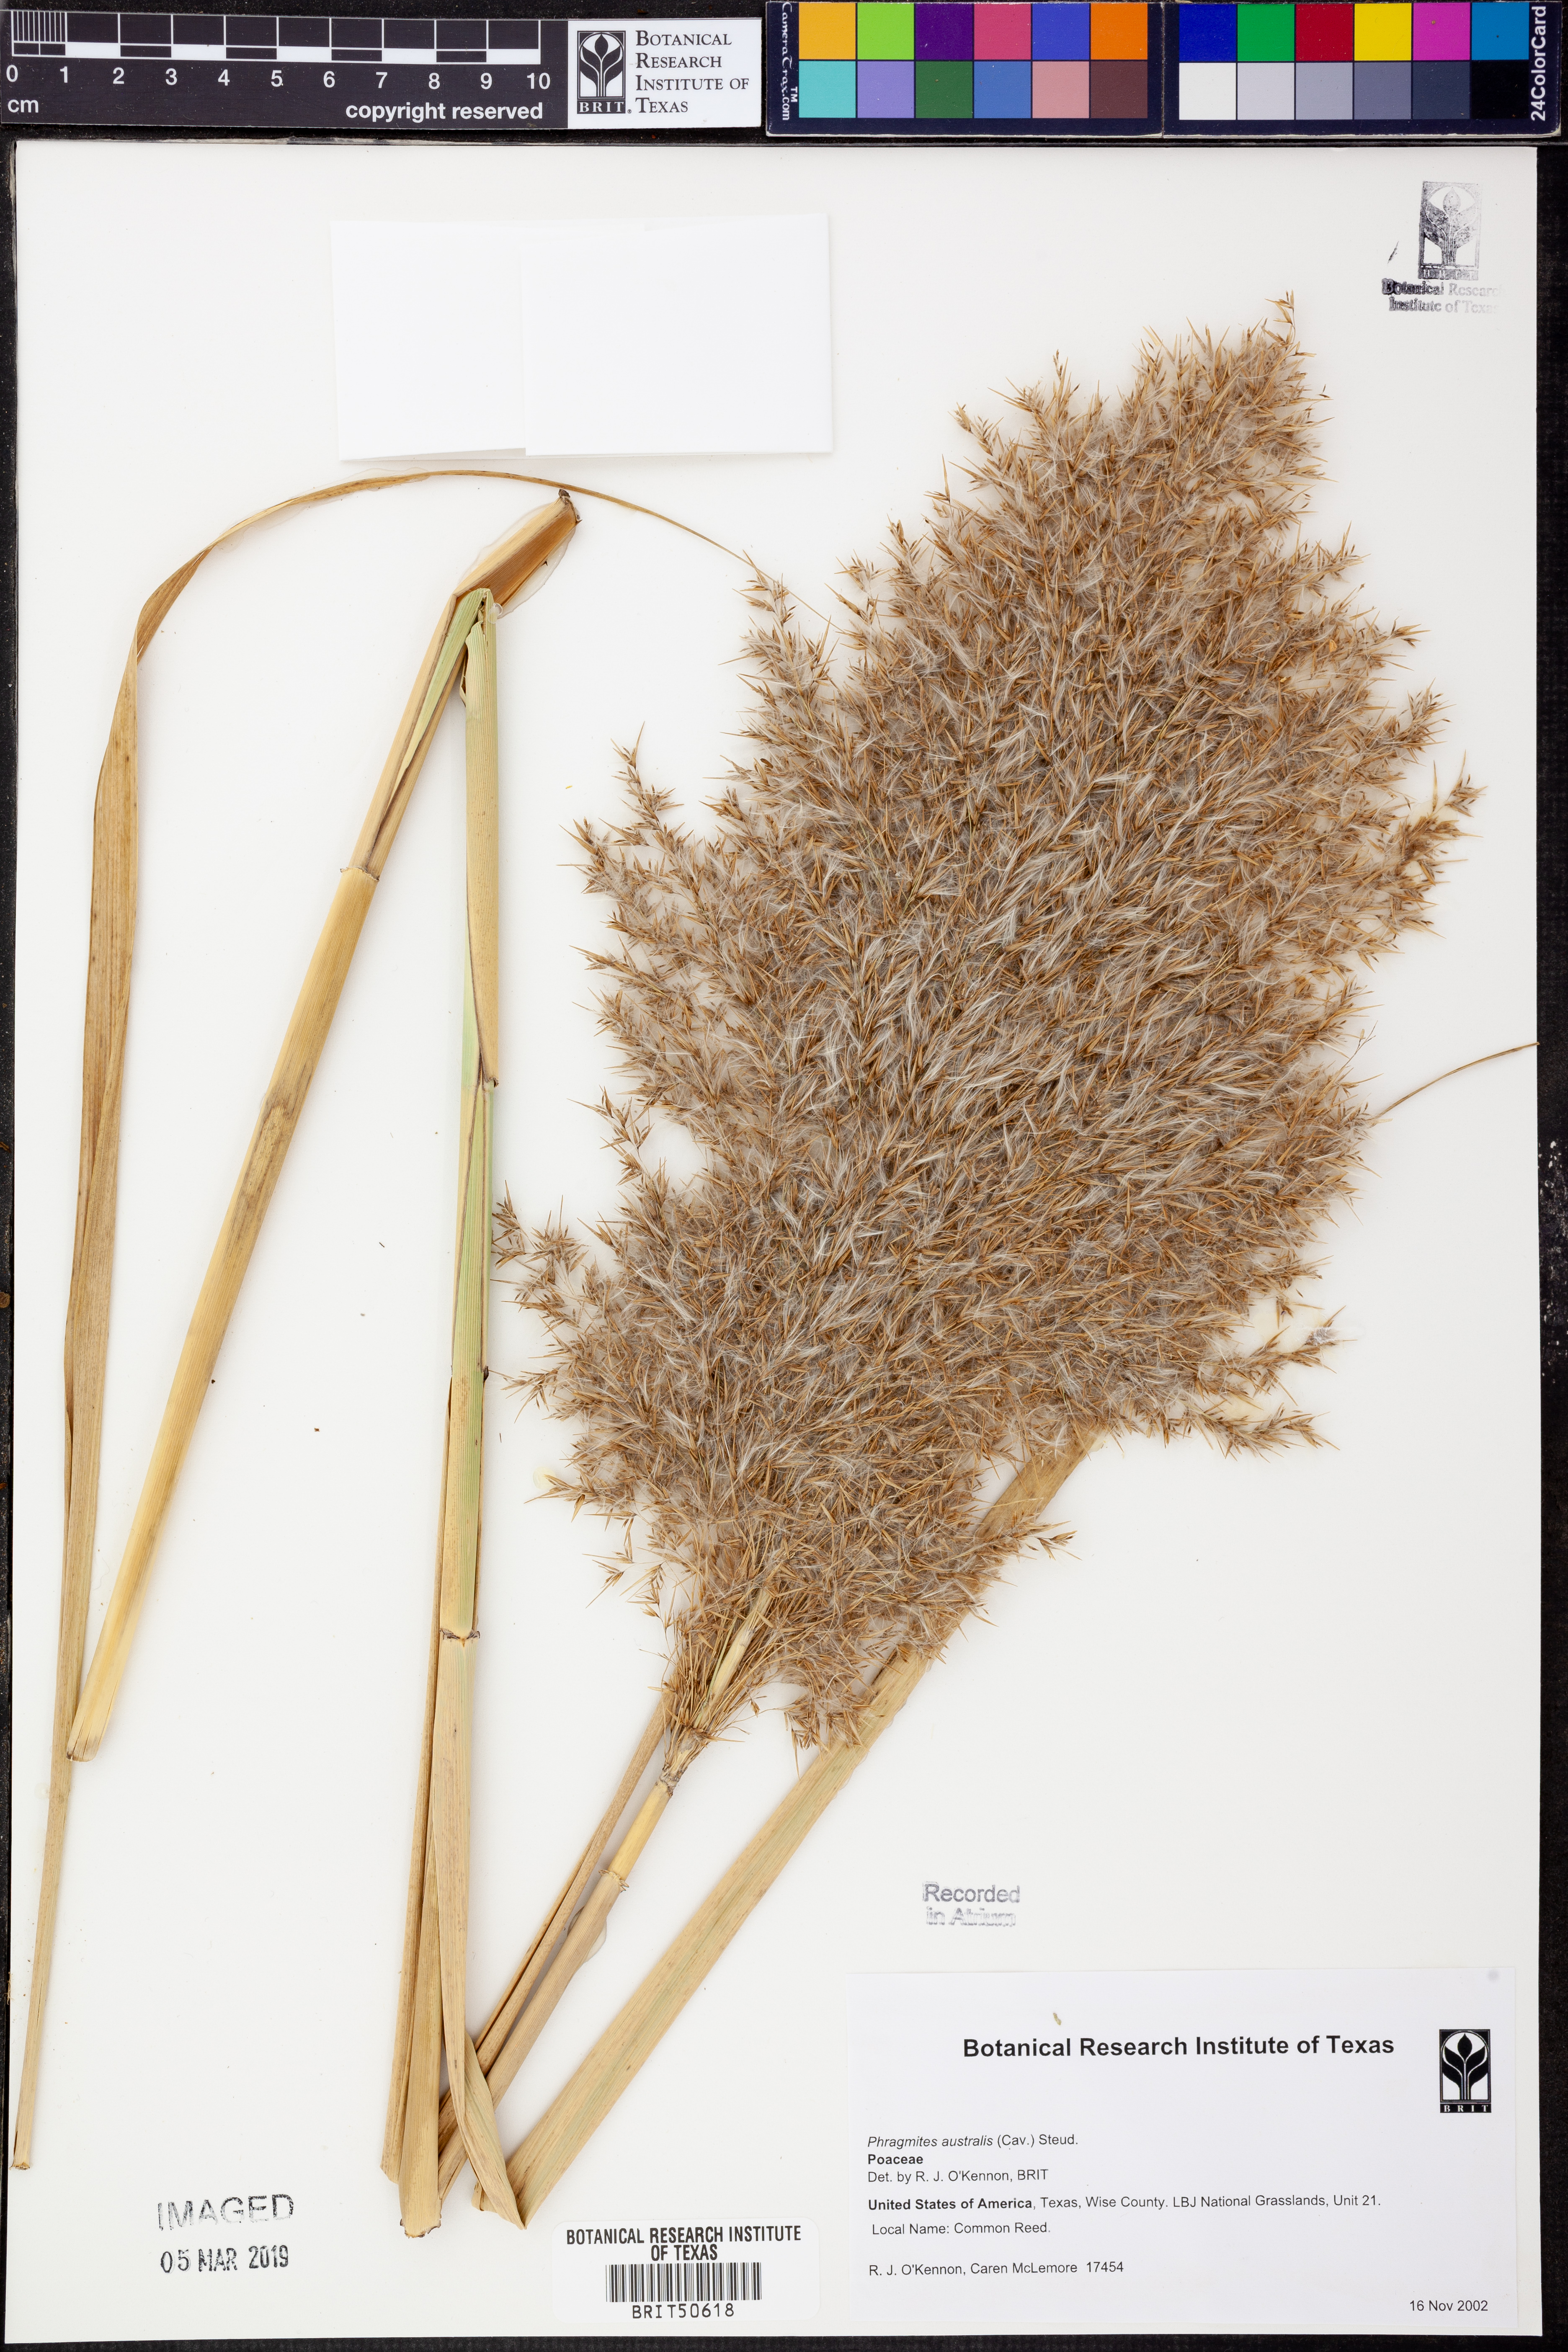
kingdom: Plantae
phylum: Tracheophyta
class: Liliopsida
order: Poales
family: Poaceae
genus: Phragmites
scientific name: Phragmites australis
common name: Common reed
